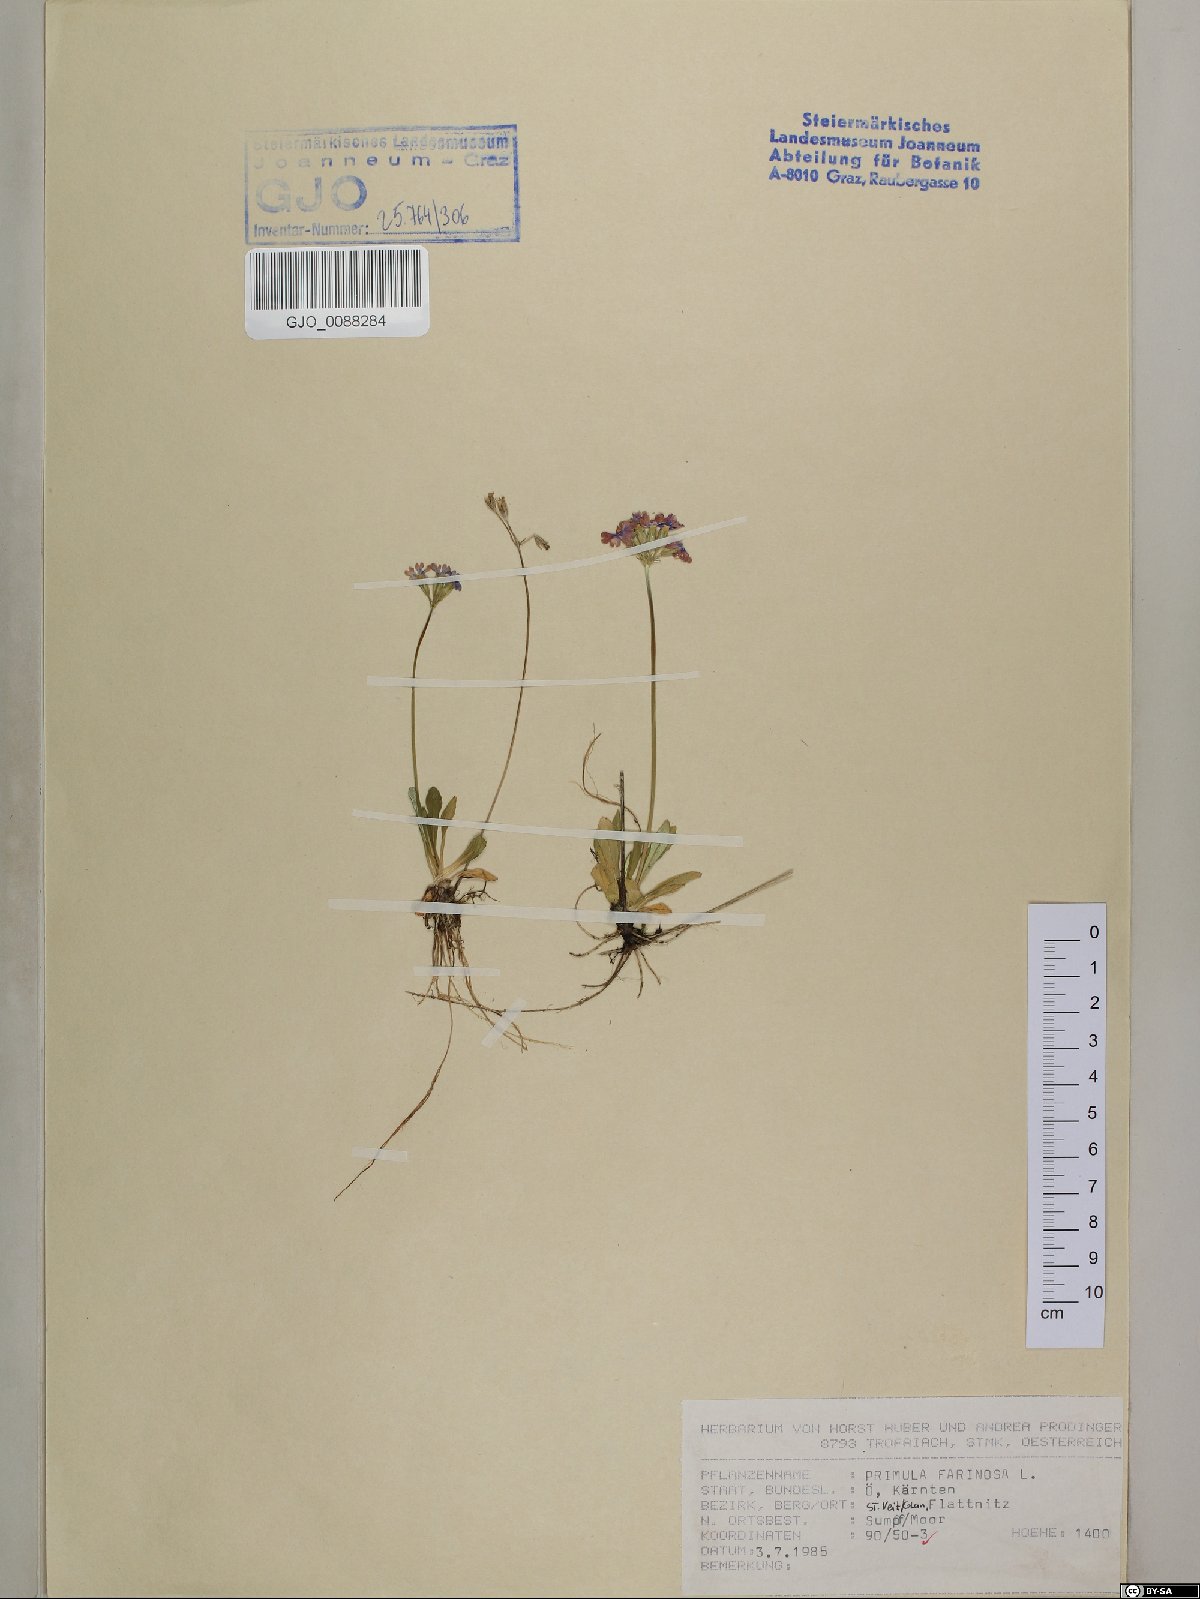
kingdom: Plantae
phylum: Tracheophyta
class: Magnoliopsida
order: Ericales
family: Primulaceae
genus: Primula
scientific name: Primula farinosa
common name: Bird's-eye primrose
